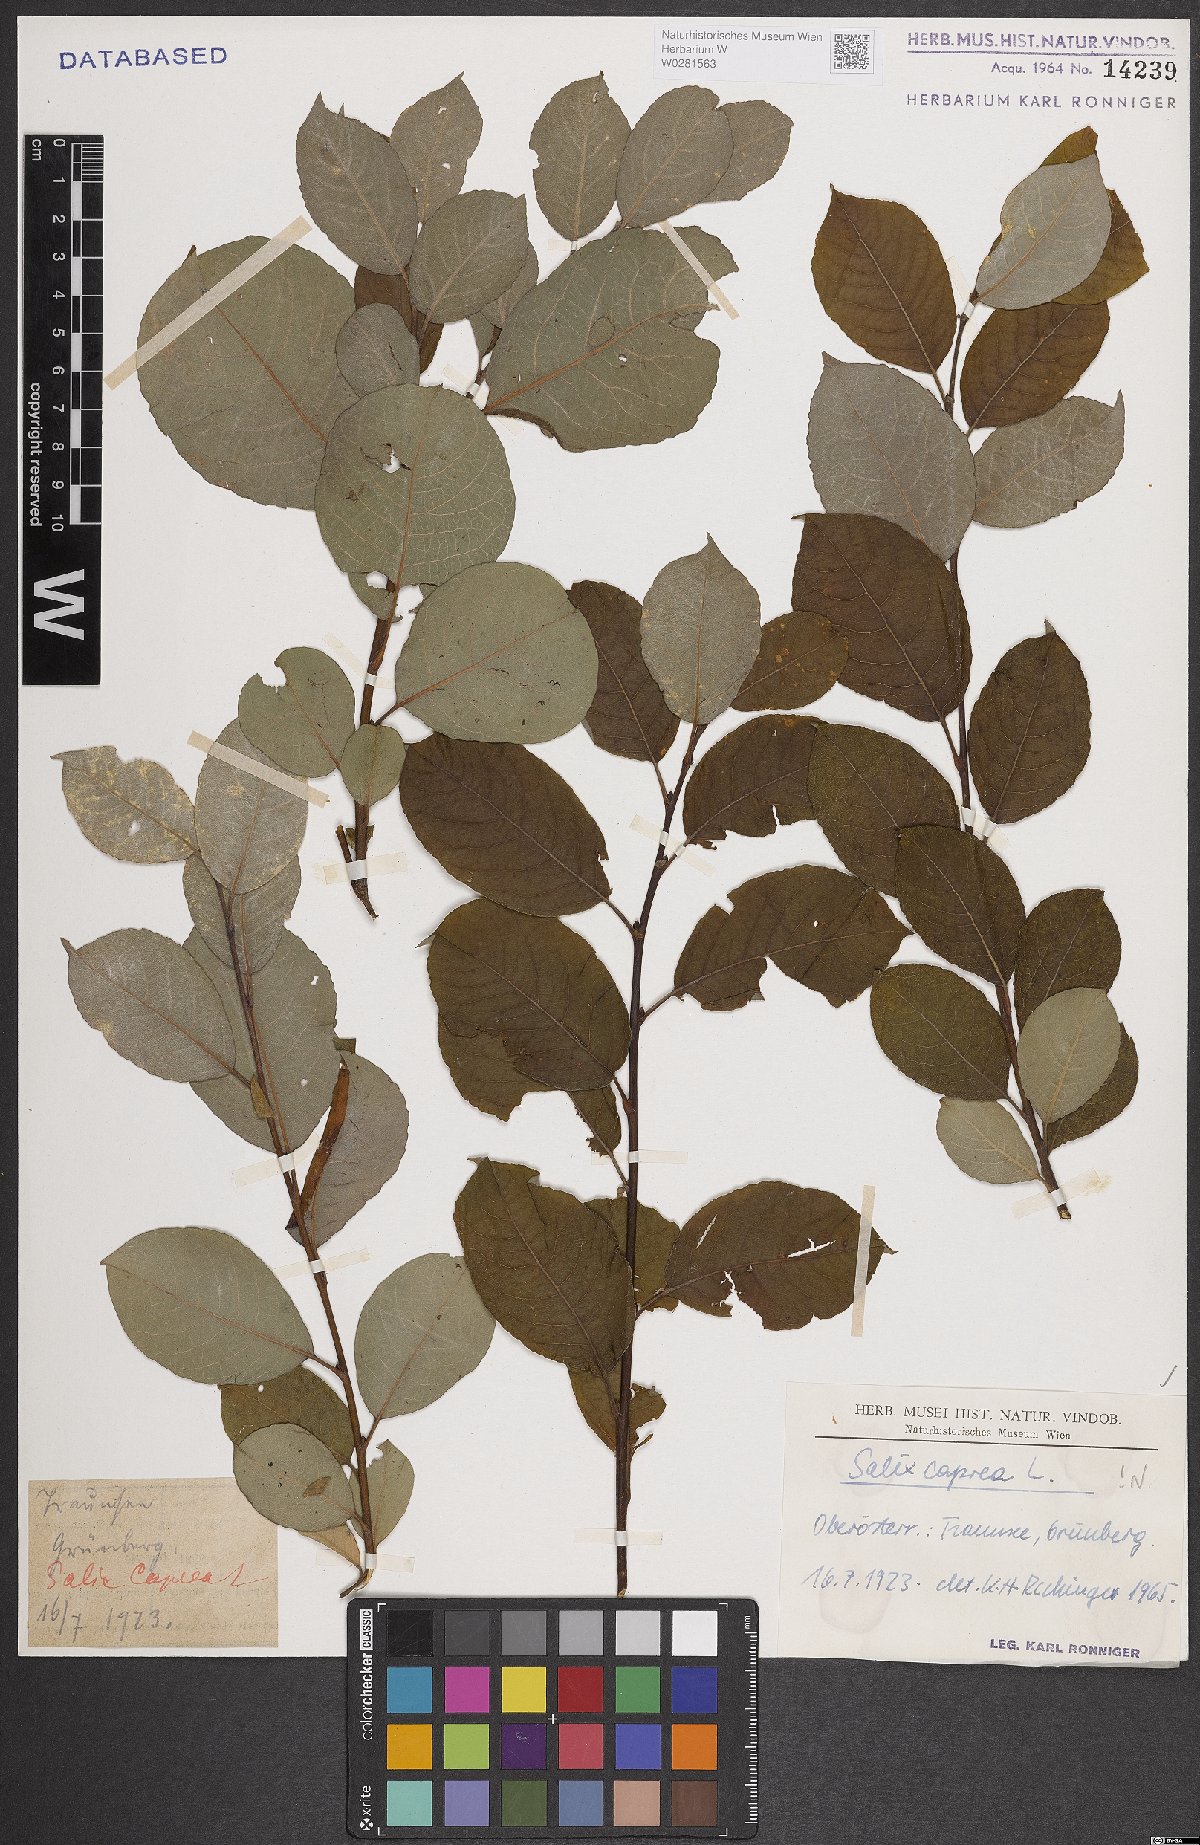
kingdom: Plantae
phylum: Tracheophyta
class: Magnoliopsida
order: Malpighiales
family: Salicaceae
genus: Salix
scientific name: Salix caprea
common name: Goat willow
